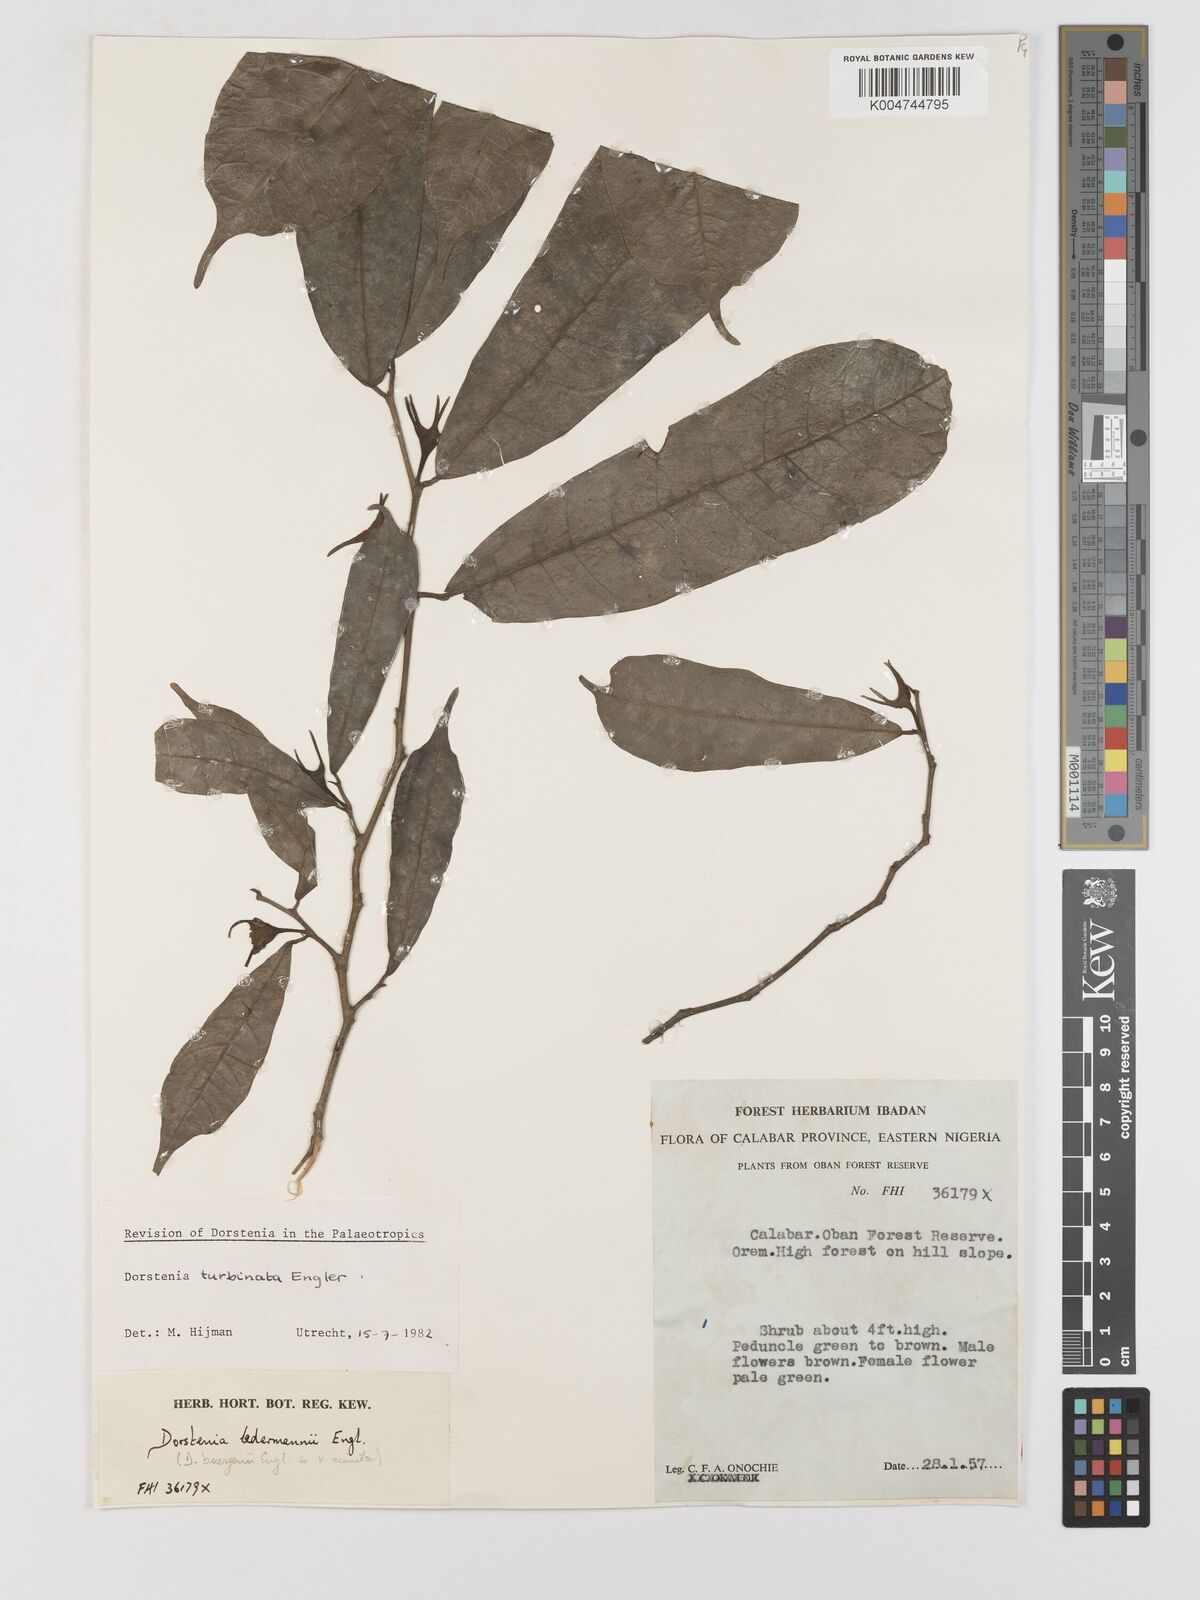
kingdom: Plantae
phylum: Tracheophyta
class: Magnoliopsida
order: Rosales
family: Moraceae
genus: Hijmania
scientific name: Hijmania turbinata
